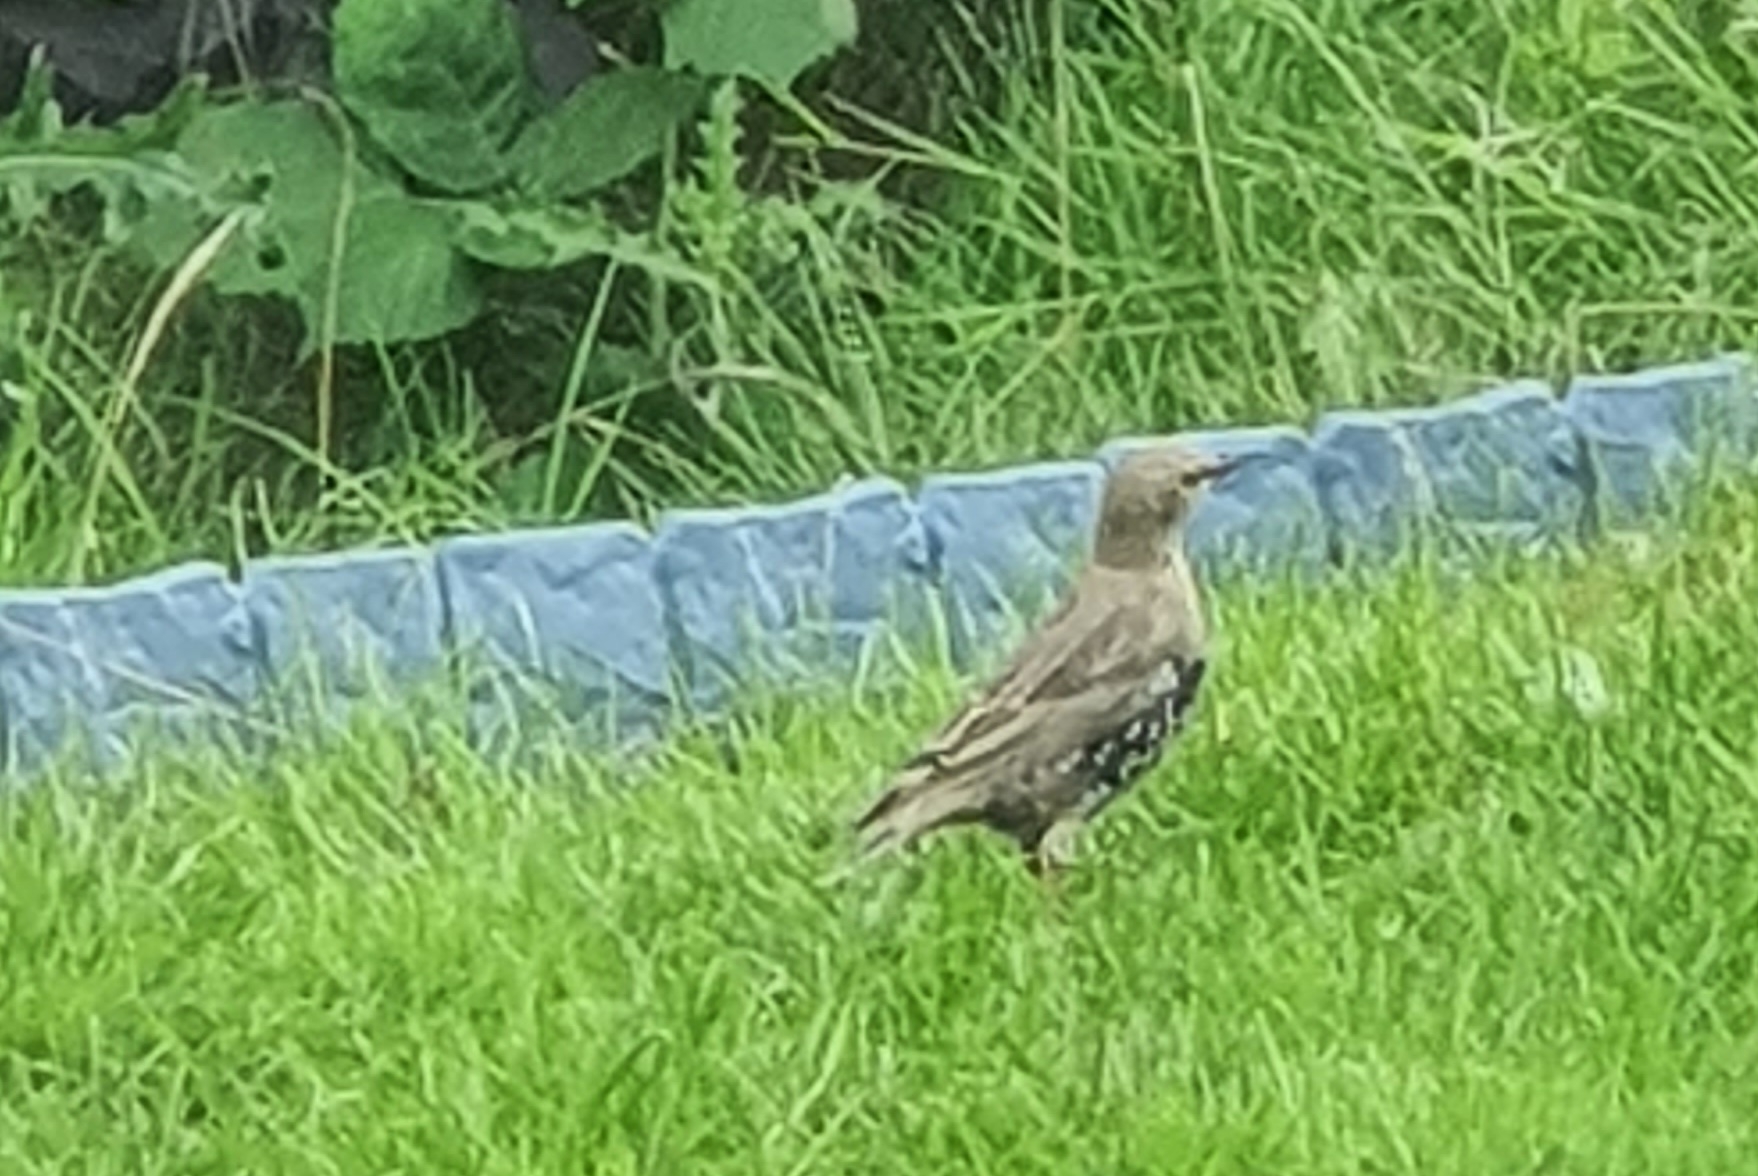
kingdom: Animalia
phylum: Chordata
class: Aves
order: Passeriformes
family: Sturnidae
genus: Sturnus
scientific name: Sturnus vulgaris
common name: Stær
